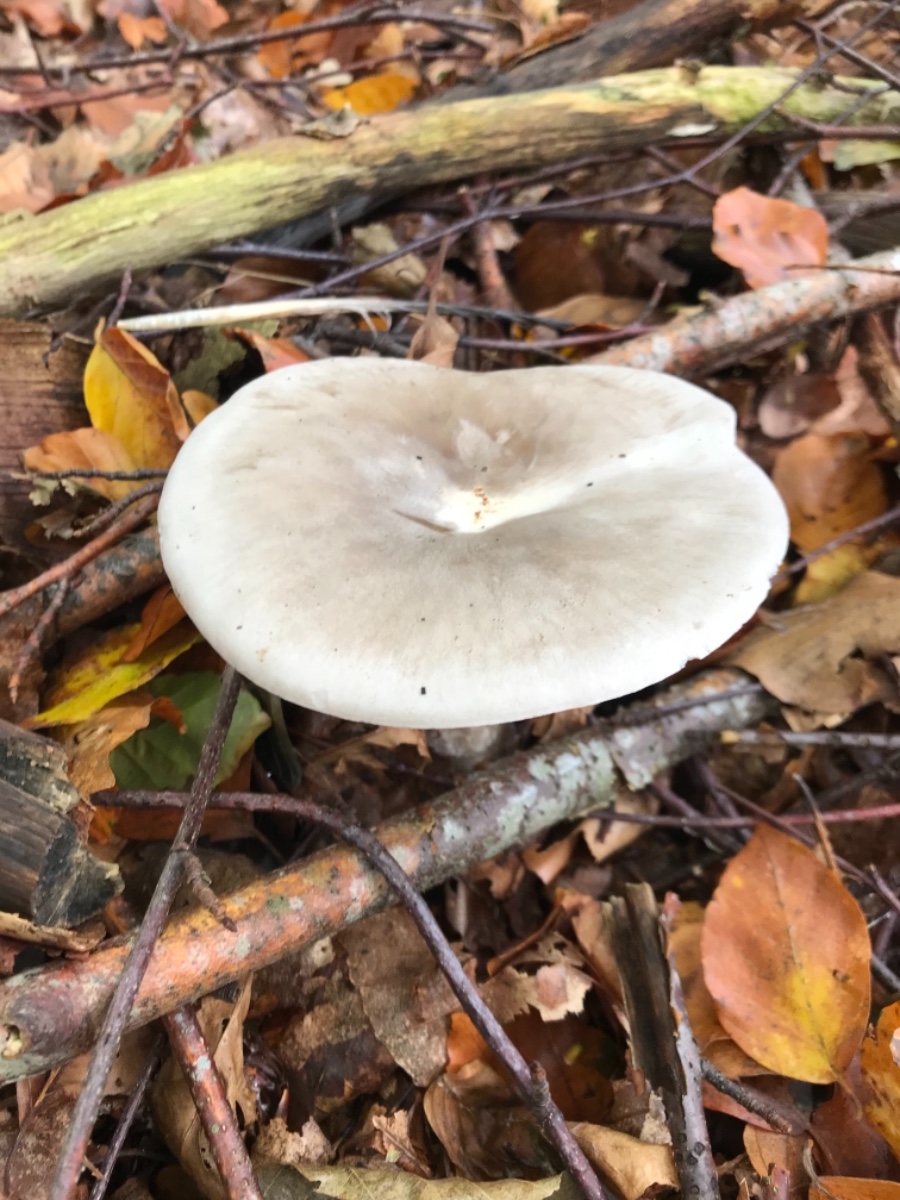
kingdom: Fungi
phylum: Basidiomycota
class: Agaricomycetes
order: Agaricales
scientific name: Agaricales
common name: champignonordenen
